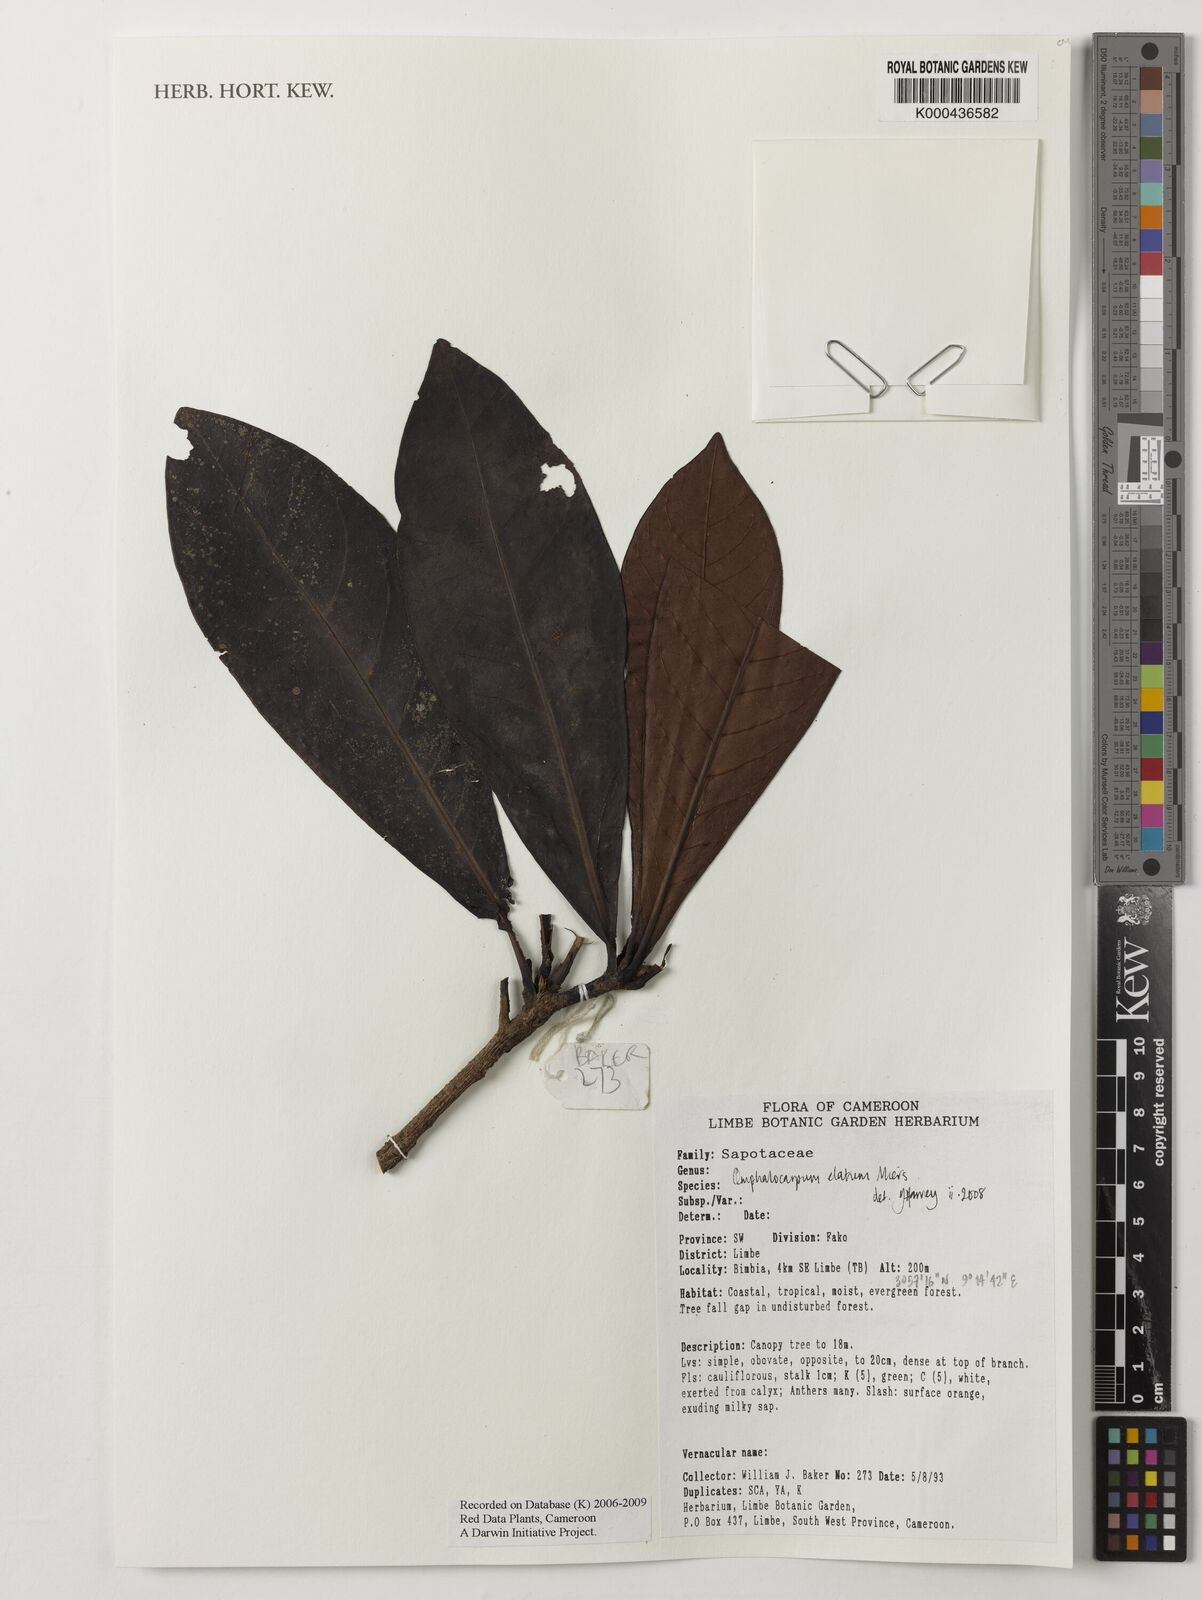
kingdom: Plantae
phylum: Tracheophyta
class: Magnoliopsida
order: Ericales
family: Sapotaceae
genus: Omphalocarpum
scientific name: Omphalocarpum elatum
